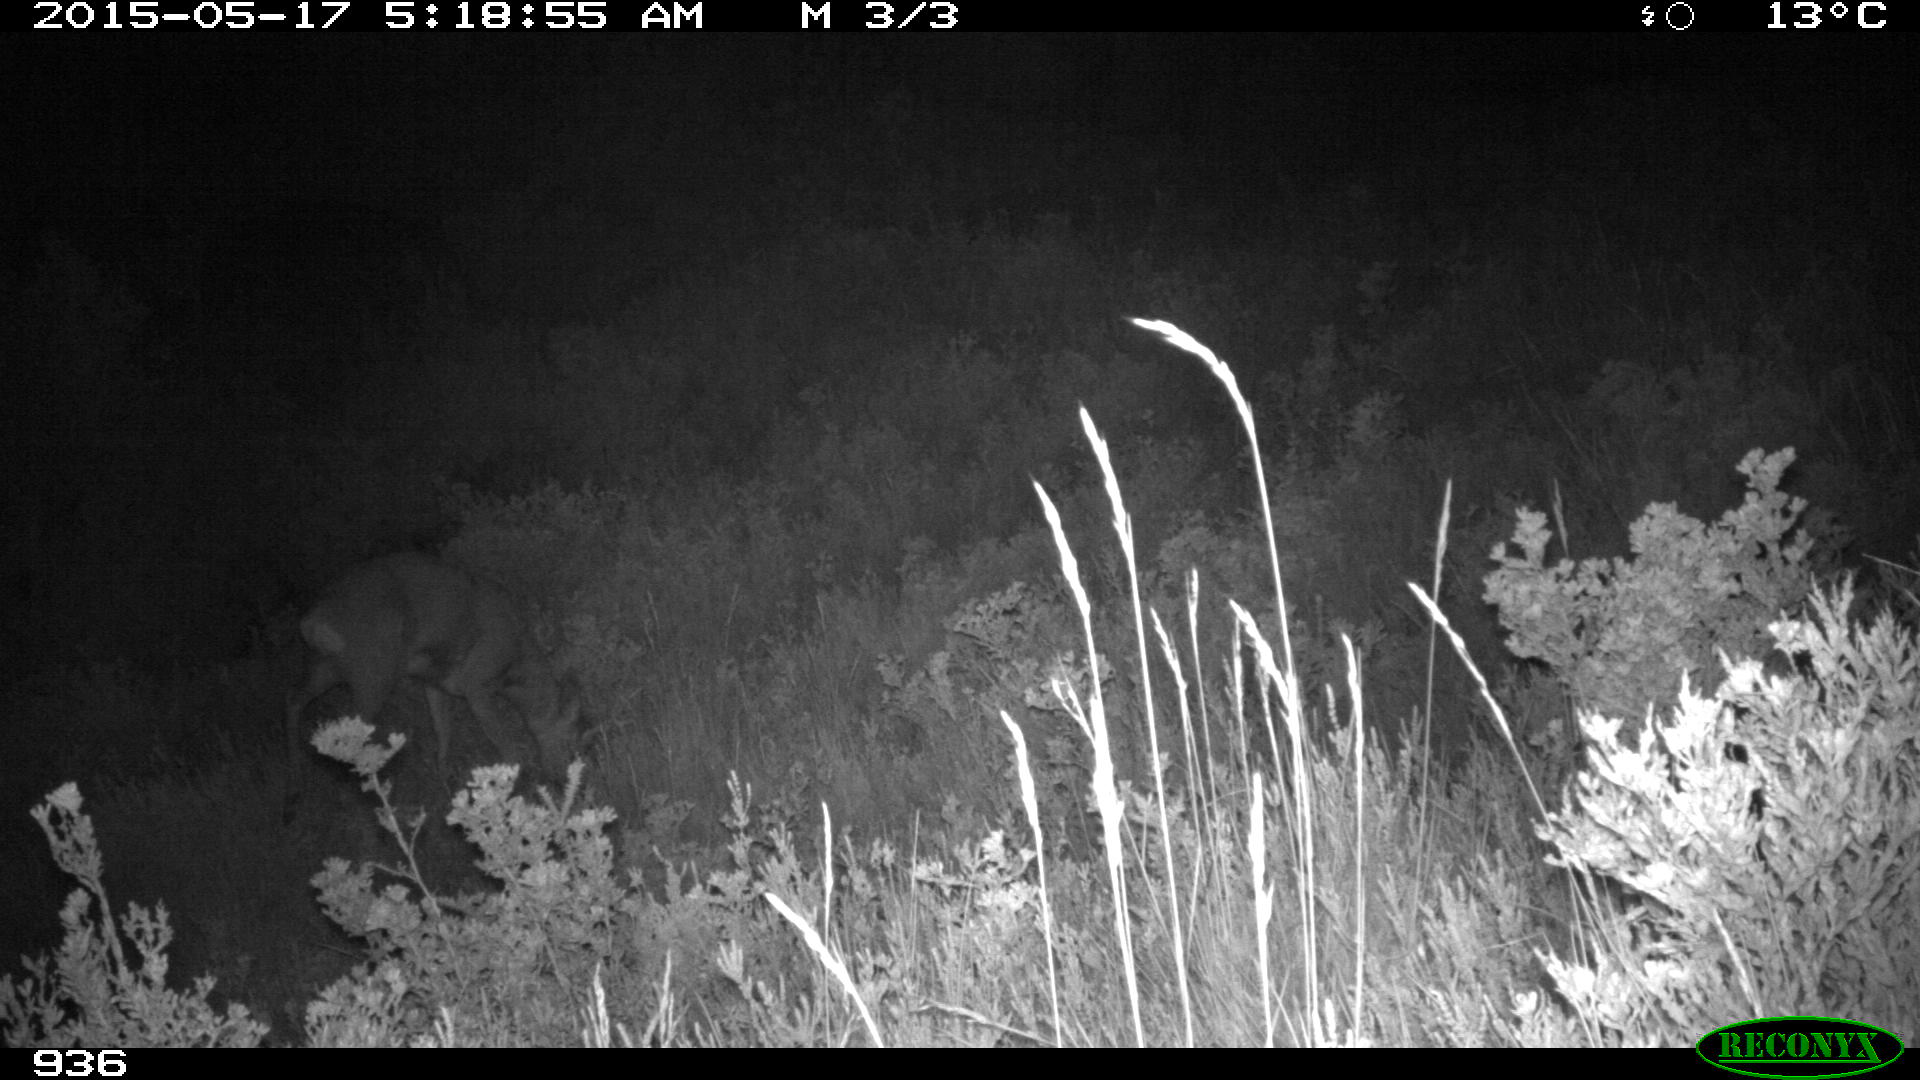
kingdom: Animalia
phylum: Chordata
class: Mammalia
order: Artiodactyla
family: Cervidae
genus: Capreolus
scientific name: Capreolus capreolus
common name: Western roe deer
